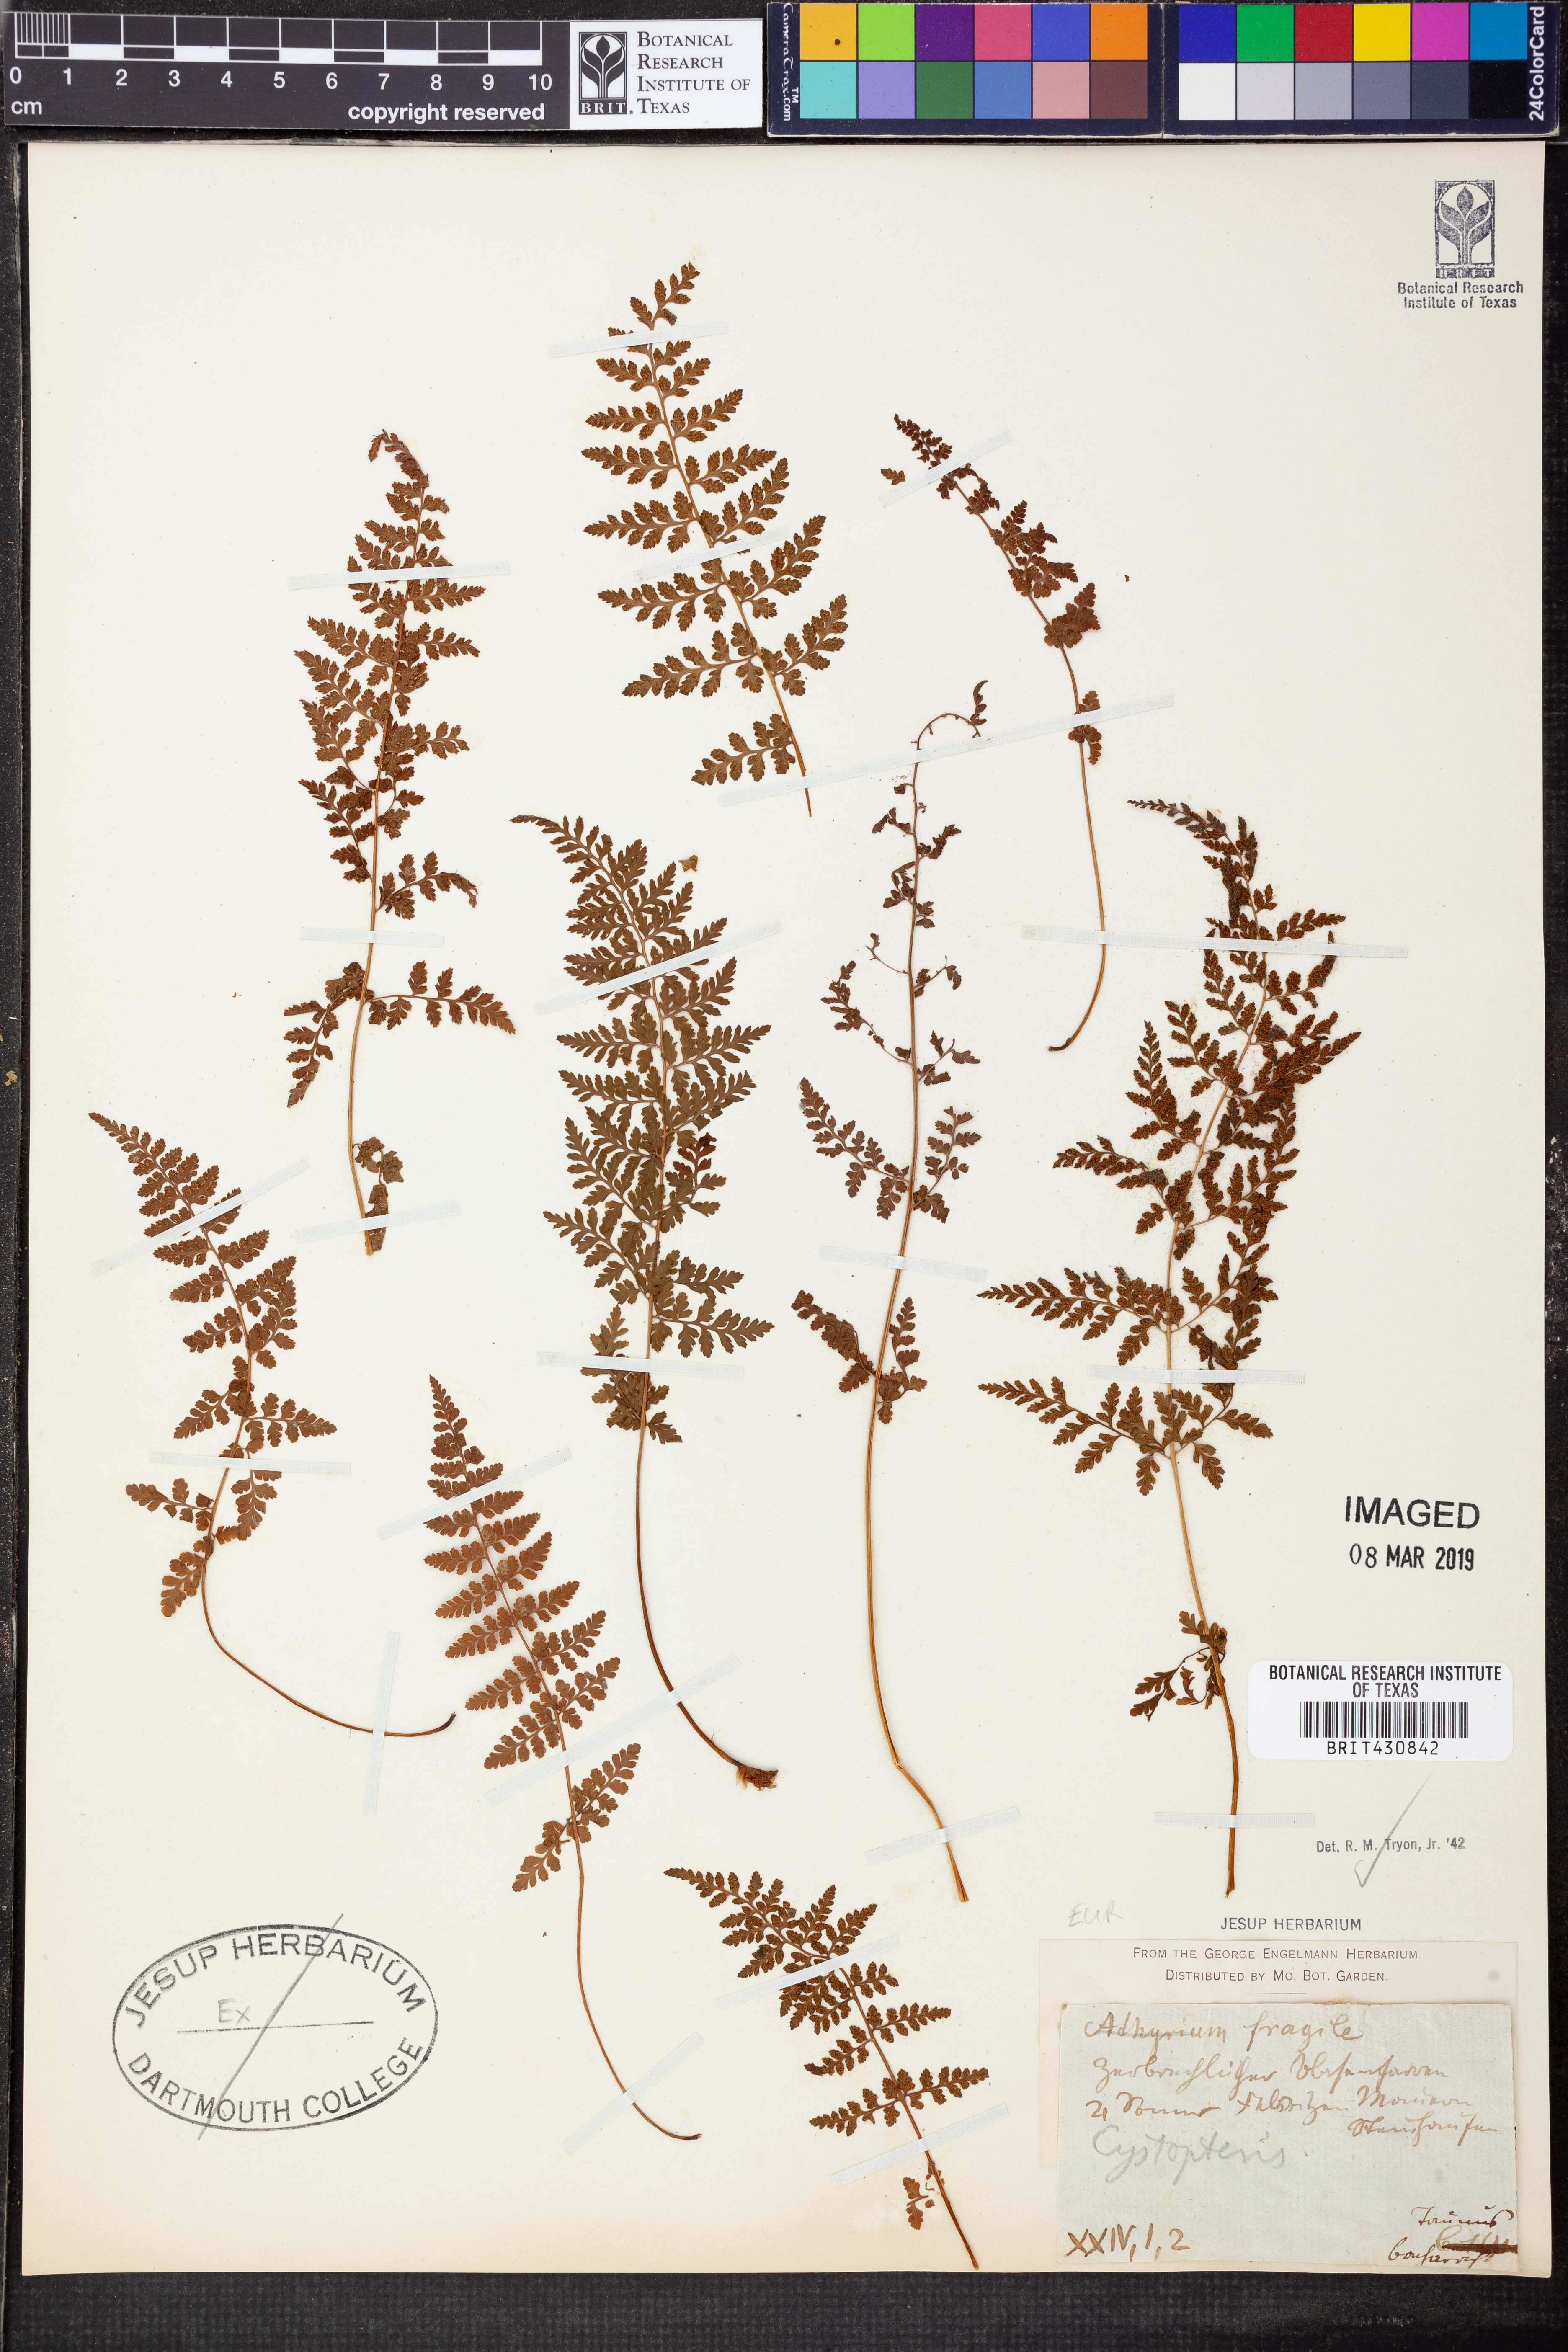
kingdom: Plantae
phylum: Tracheophyta
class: Polypodiopsida
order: Polypodiales
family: Cystopteridaceae
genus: Cystopteris
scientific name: Cystopteris fragilis
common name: Brittle bladder fern
